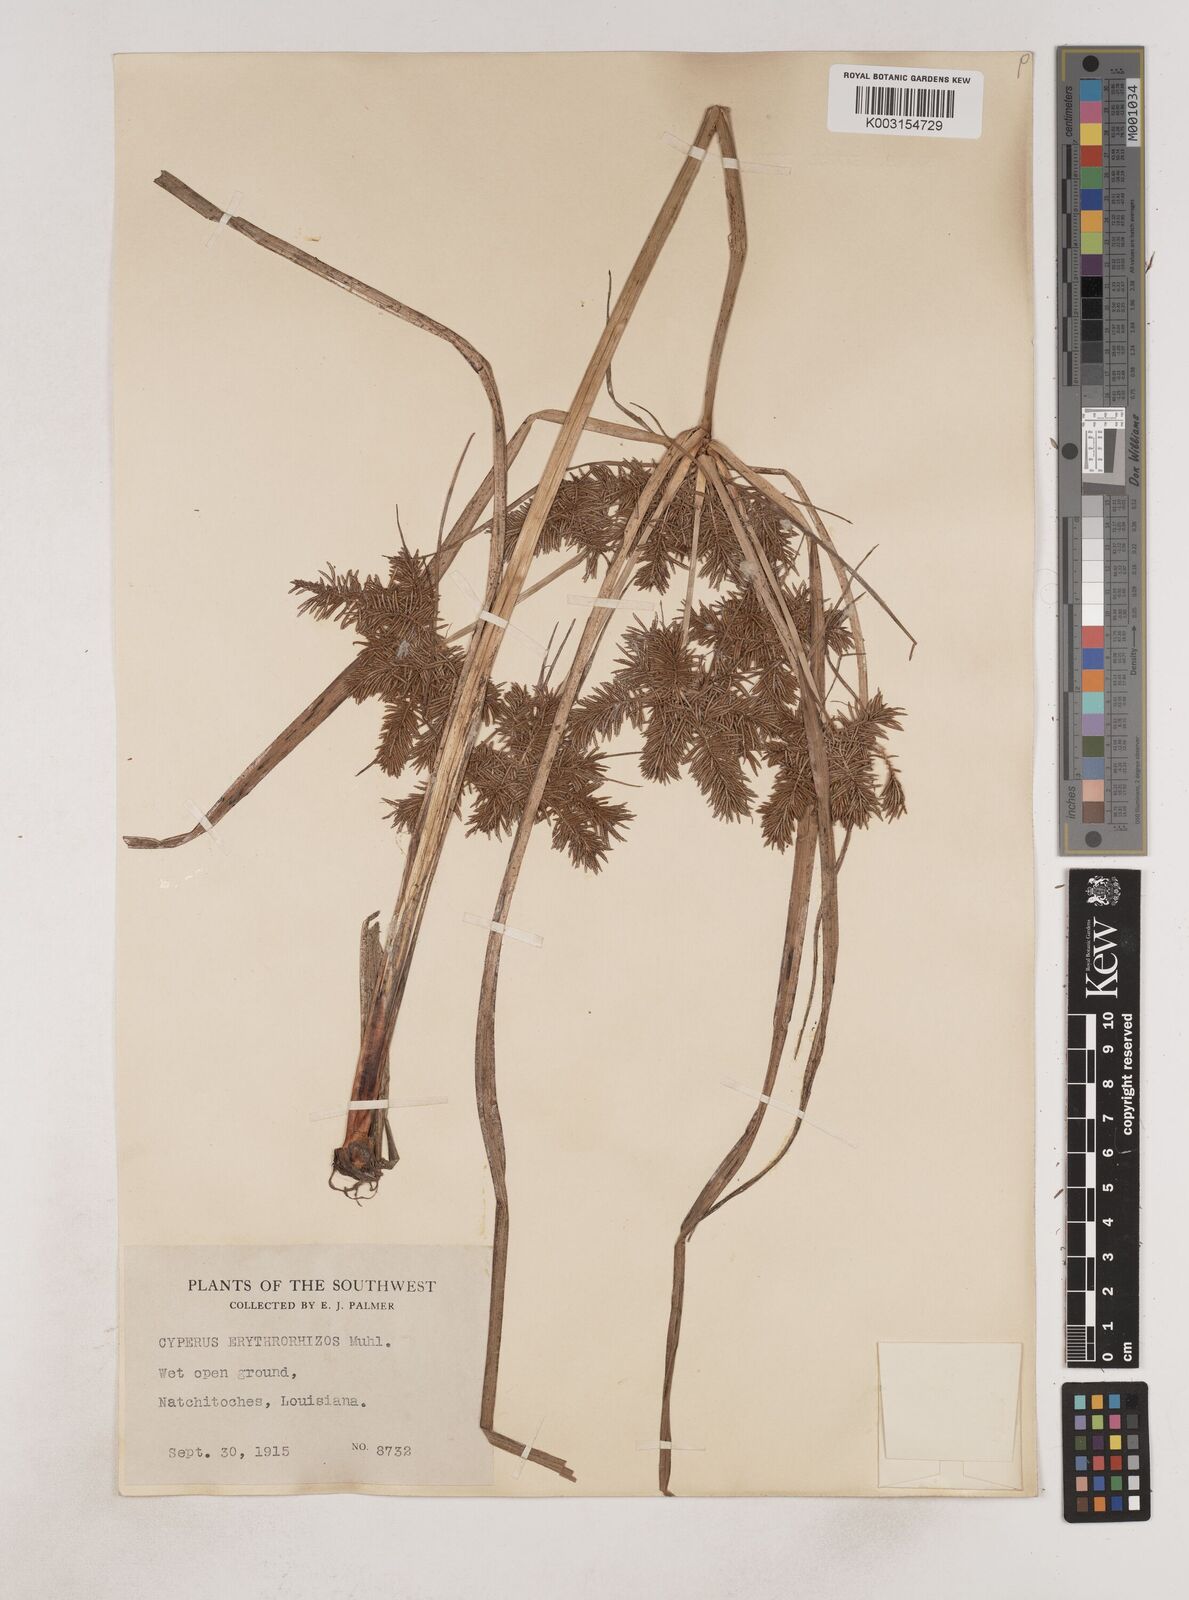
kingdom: Plantae
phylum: Tracheophyta
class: Liliopsida
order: Poales
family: Cyperaceae
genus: Cyperus
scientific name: Cyperus erythrorhizos
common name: Red-root flat sedge
